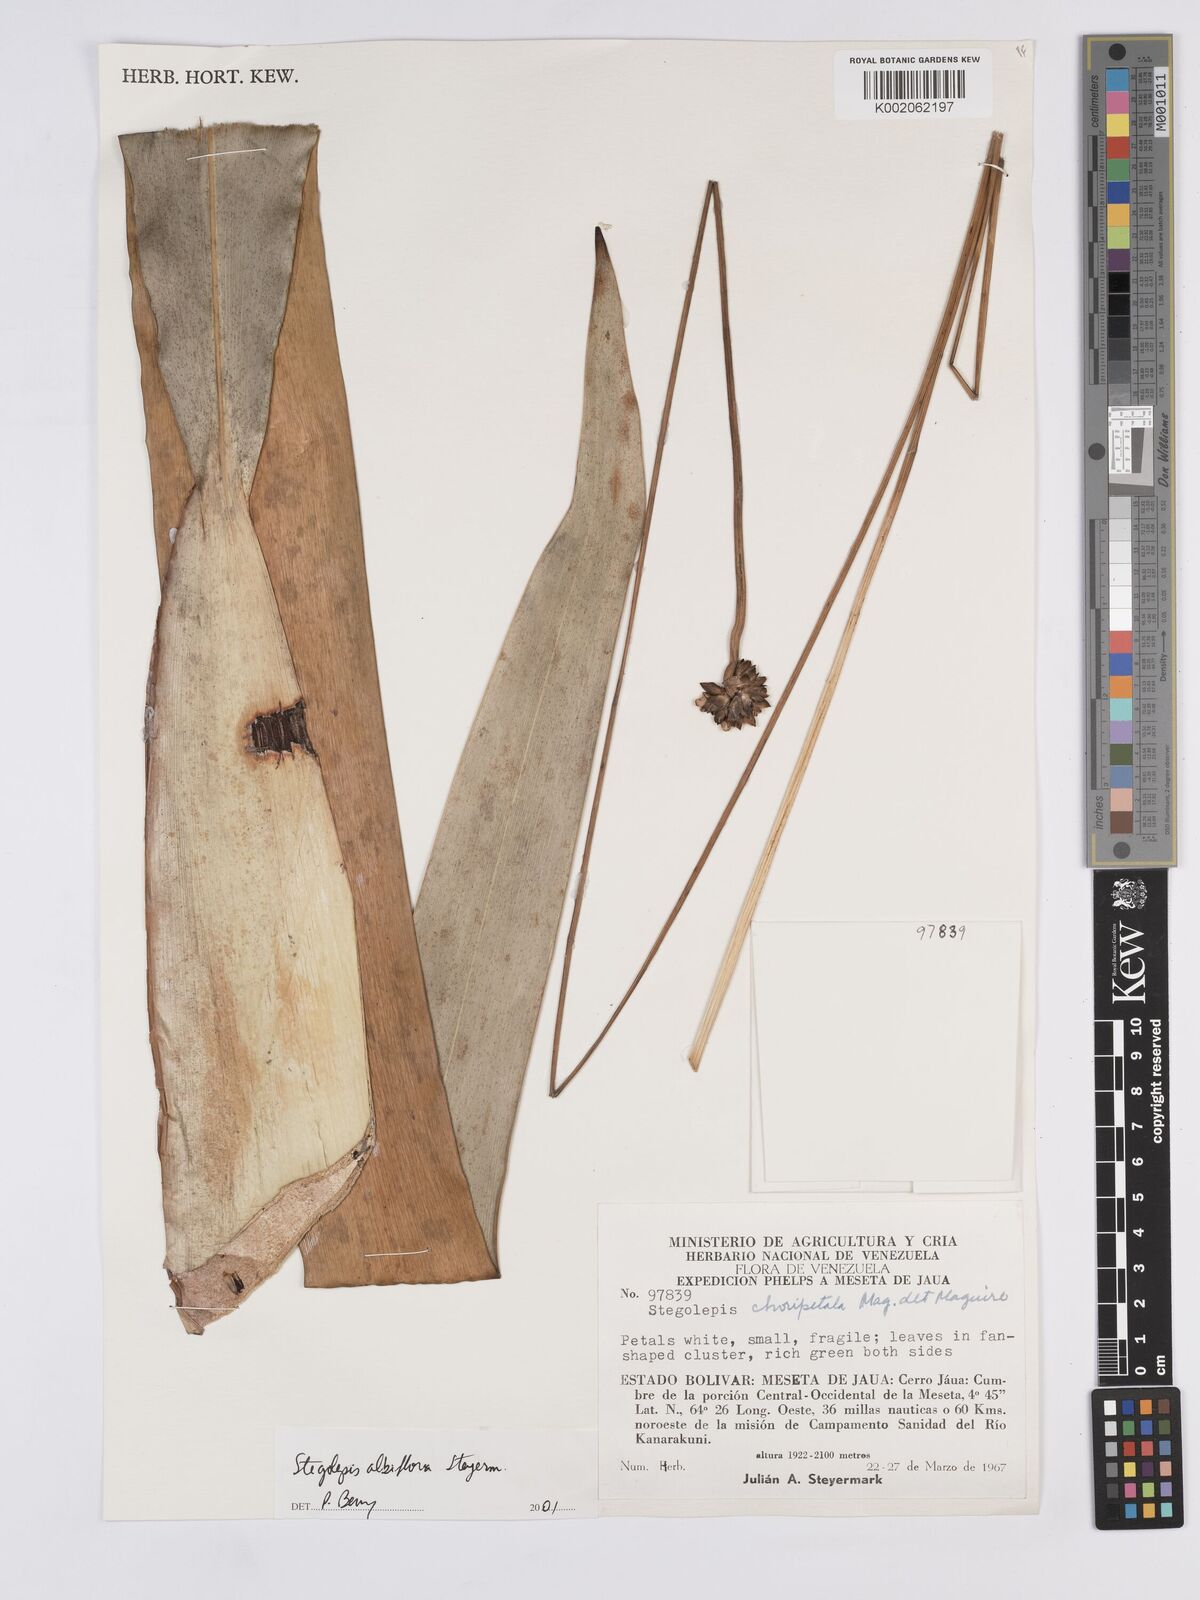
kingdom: Plantae
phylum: Tracheophyta
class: Liliopsida
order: Poales
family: Rapateaceae
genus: Stegolepis
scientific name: Stegolepis albiflora
